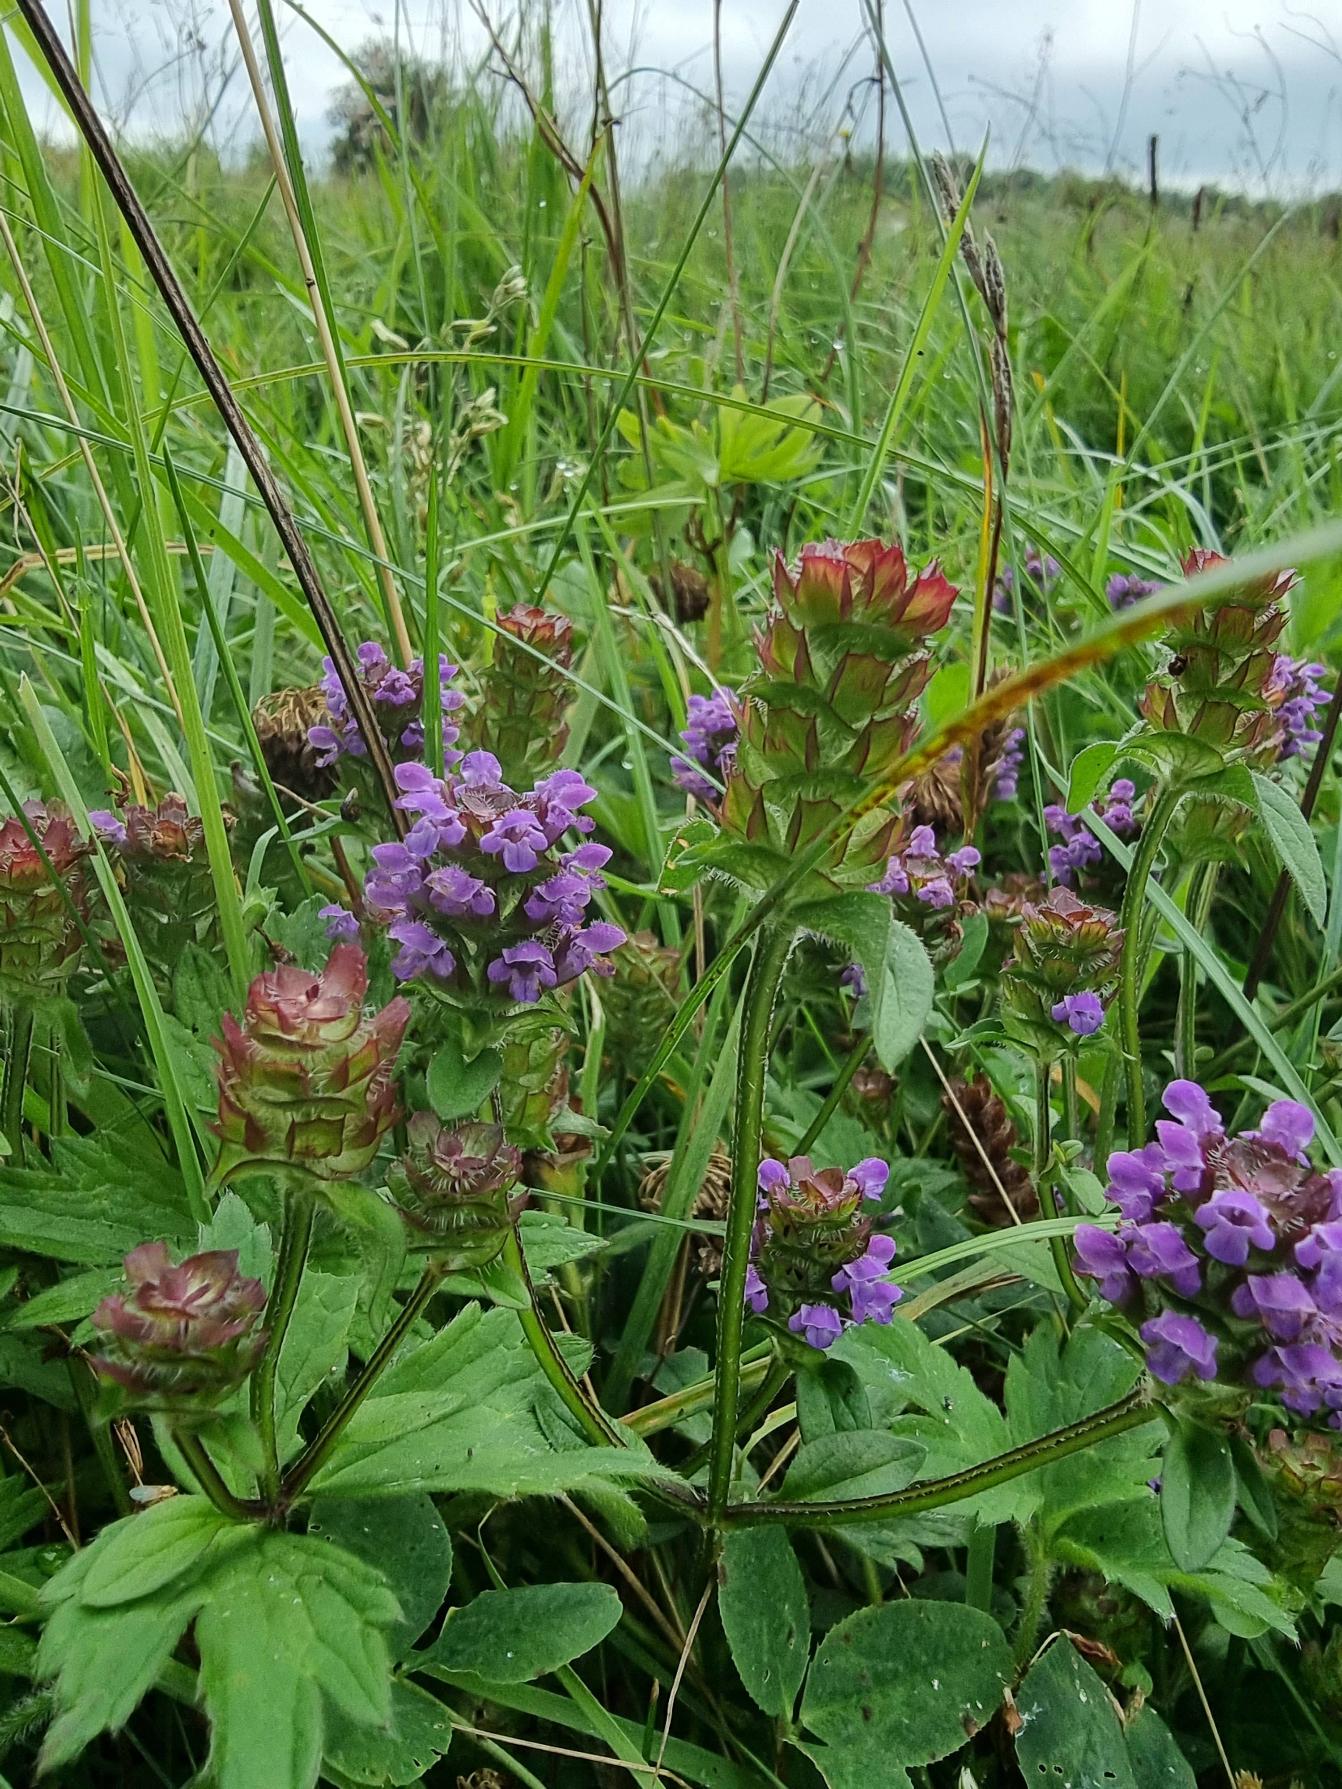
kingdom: Plantae
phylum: Tracheophyta
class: Magnoliopsida
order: Lamiales
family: Lamiaceae
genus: Prunella
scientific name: Prunella vulgaris
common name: Almindelig brunelle
